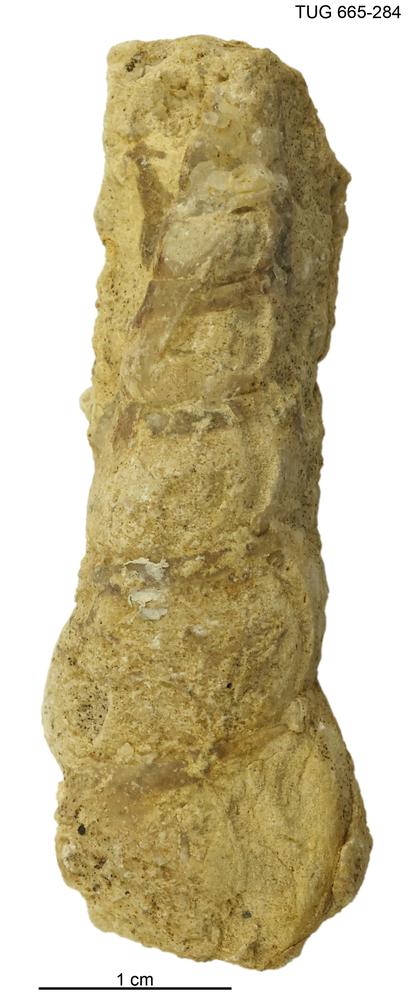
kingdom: Animalia
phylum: Mollusca
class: Gastropoda
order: Pleurotomariida
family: Murchisoniidae
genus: Murchisonia
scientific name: Murchisonia scrobiculata
